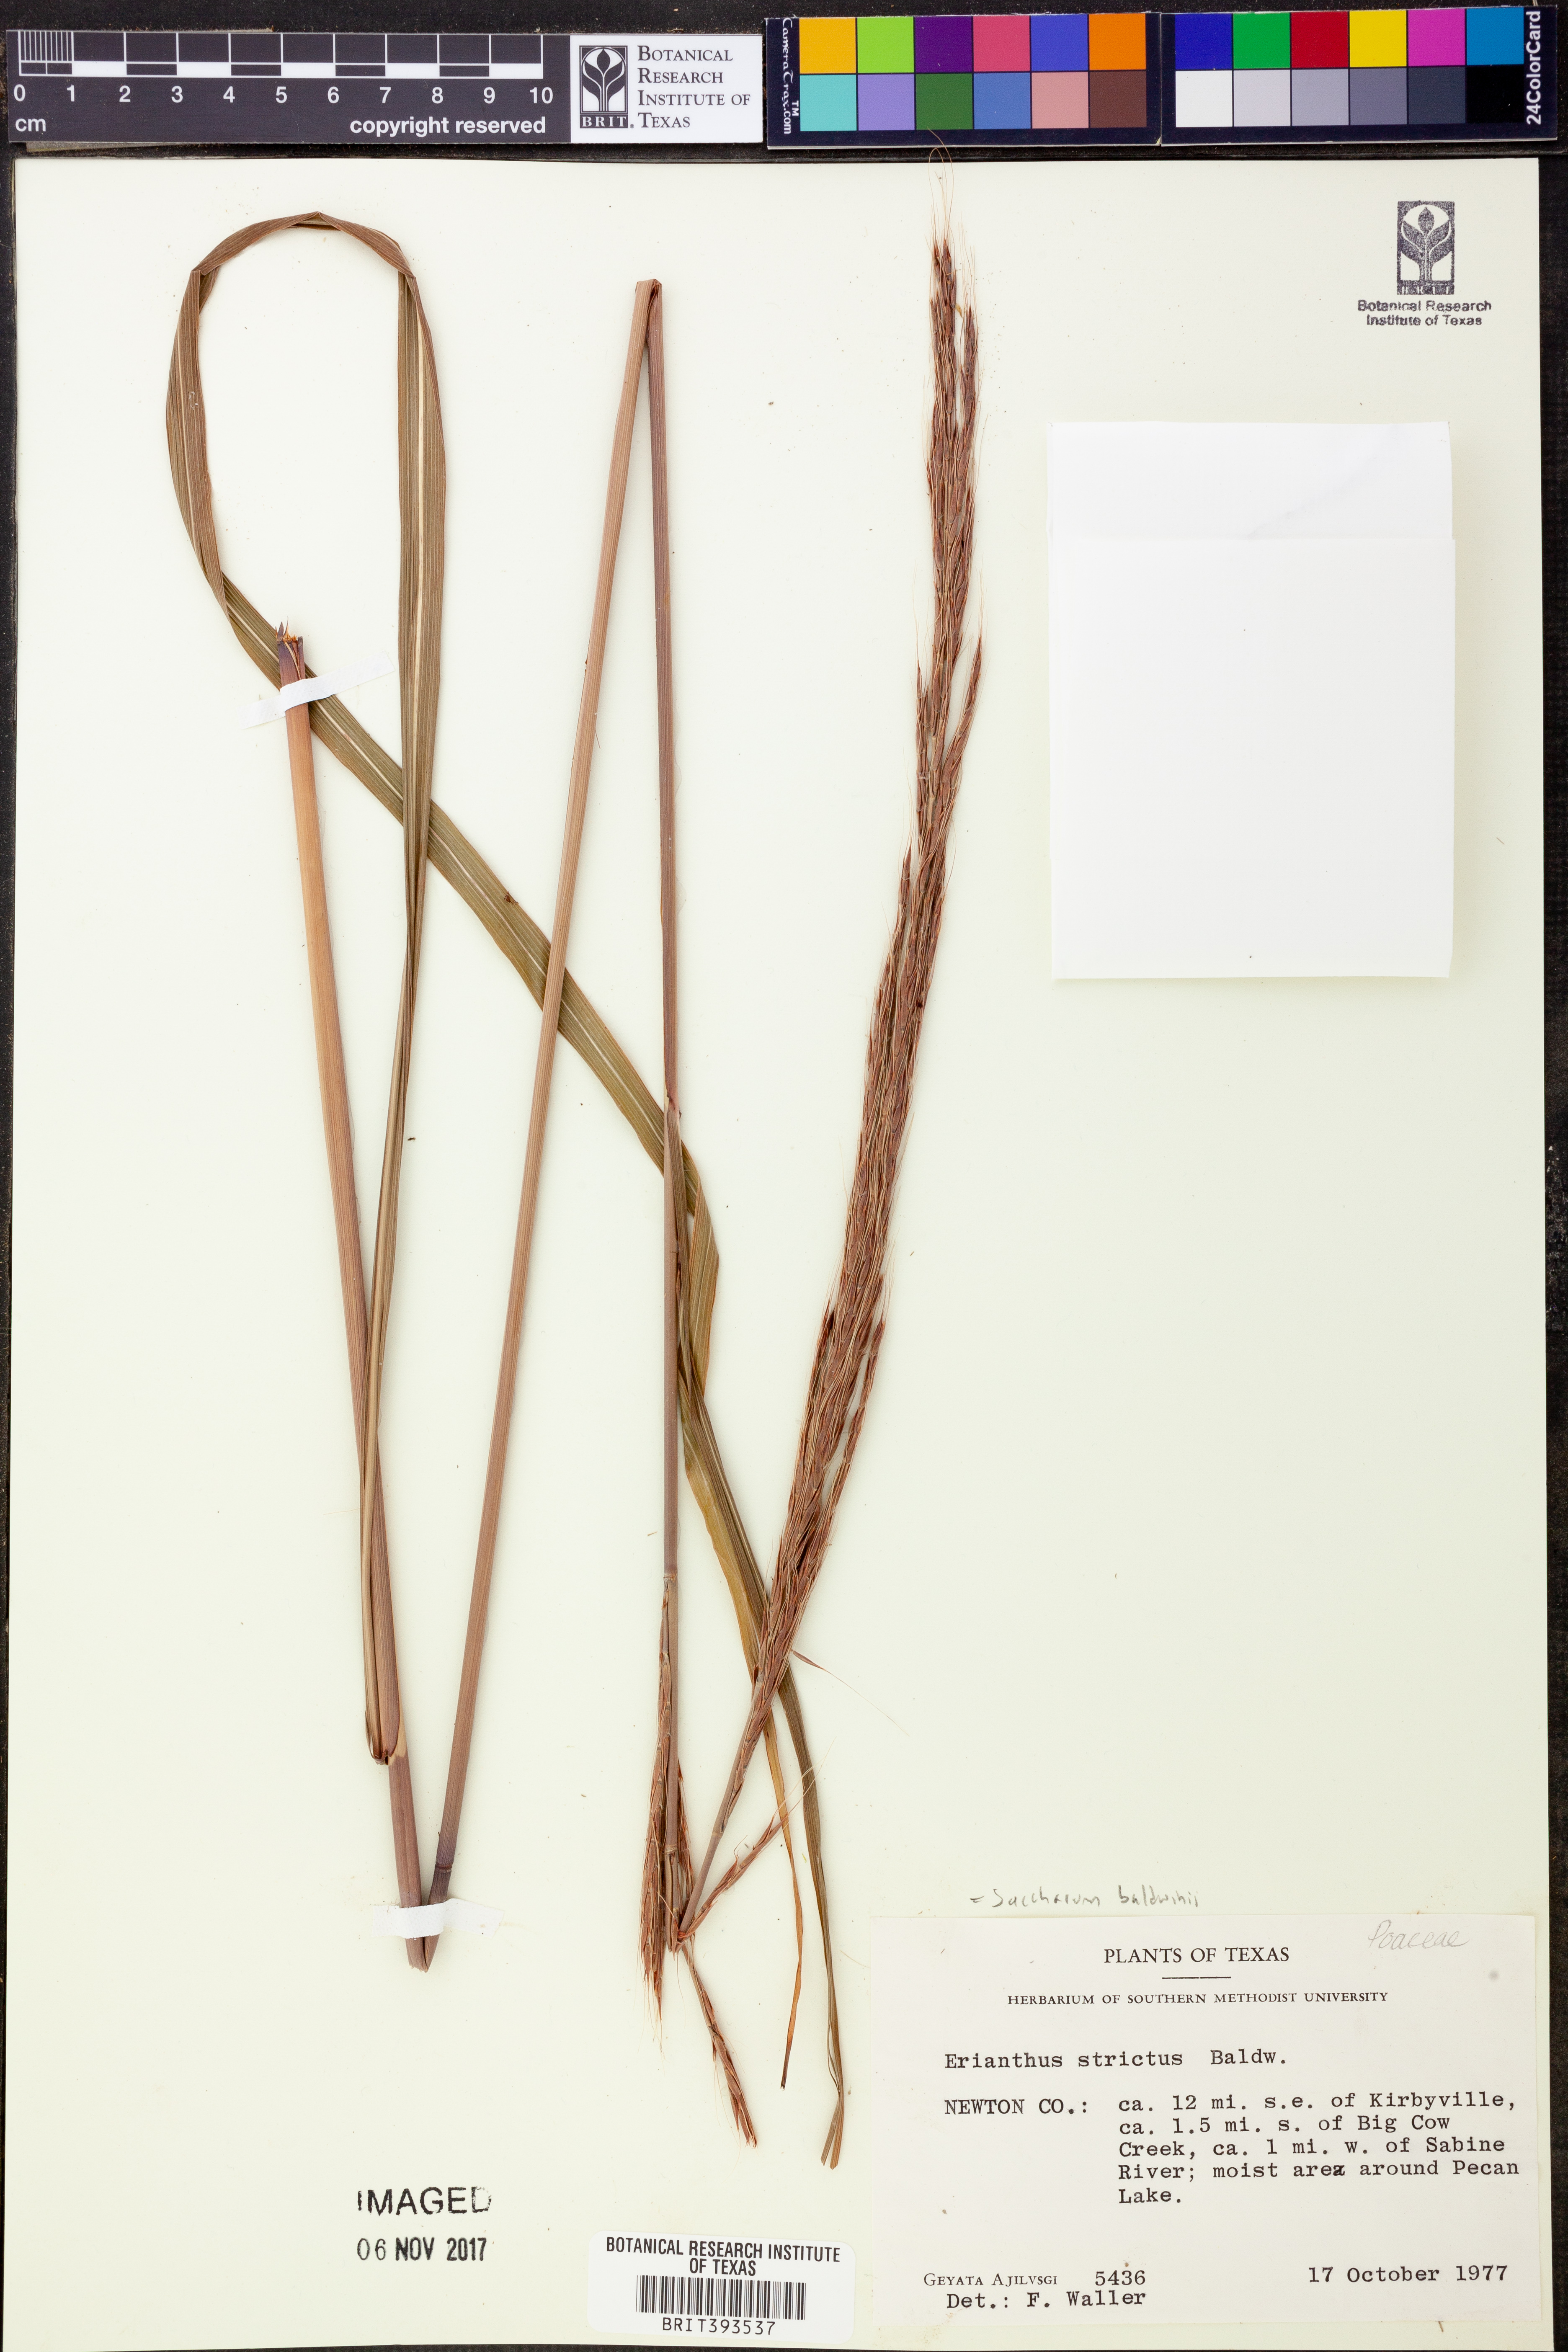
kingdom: Plantae
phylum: Tracheophyta
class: Liliopsida
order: Poales
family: Poaceae
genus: Erianthus
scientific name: Erianthus strictus
